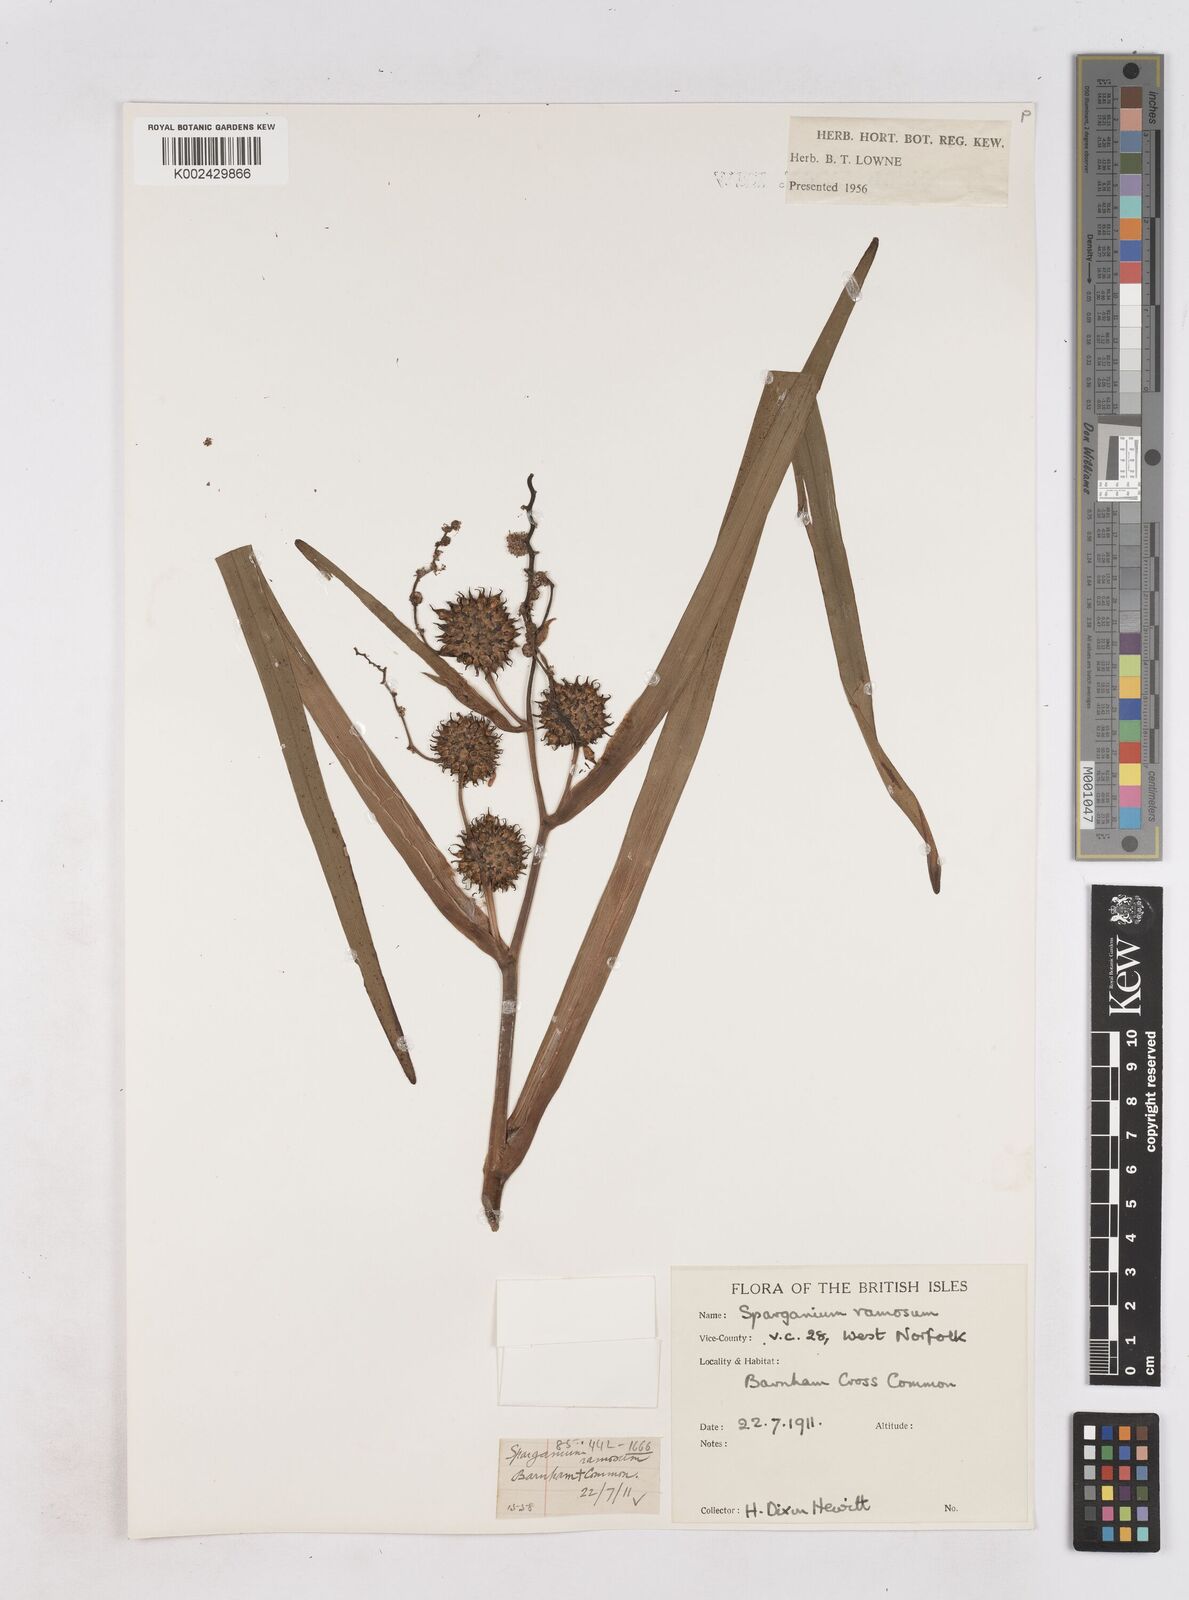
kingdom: Plantae
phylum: Tracheophyta
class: Liliopsida
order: Poales
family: Typhaceae
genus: Sparganium
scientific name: Sparganium erectum
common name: Branched bur-reed
